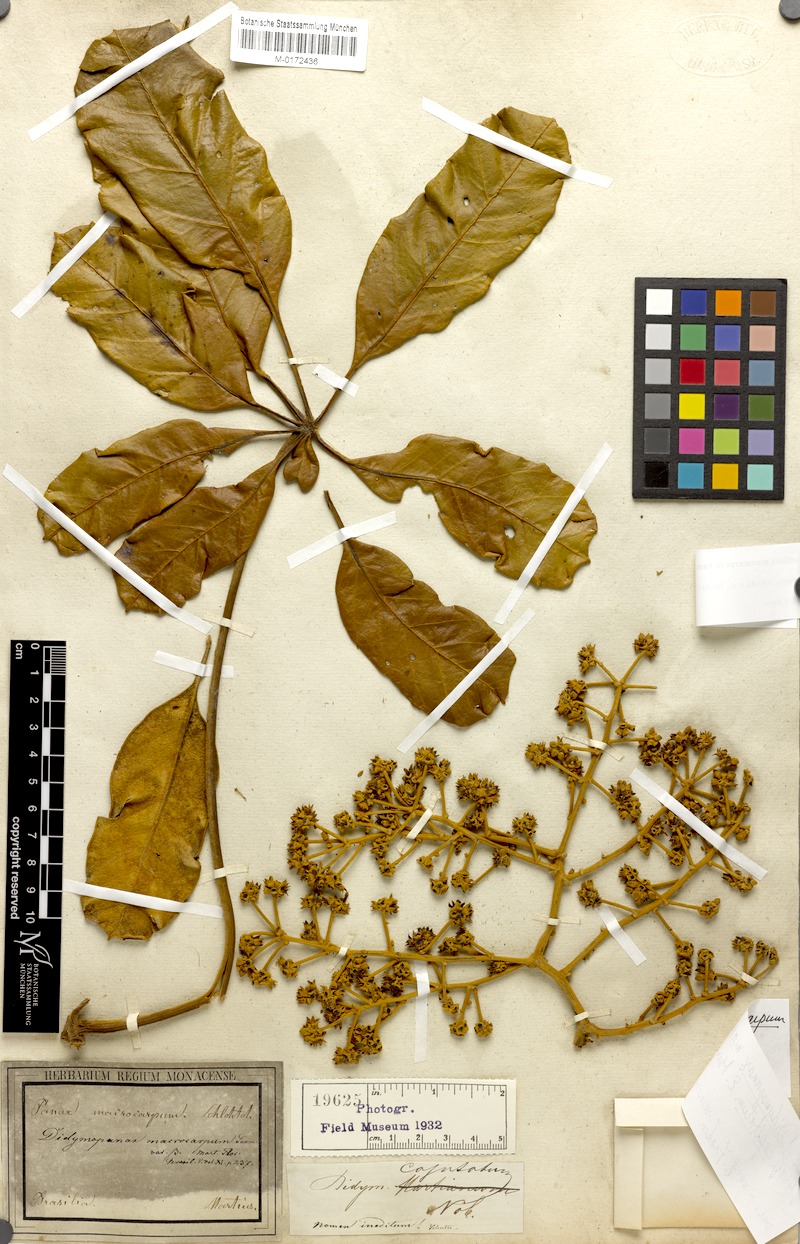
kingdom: Plantae
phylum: Tracheophyta
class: Magnoliopsida
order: Apiales
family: Araliaceae
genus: Didymopanax
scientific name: Didymopanax macrocarpus
